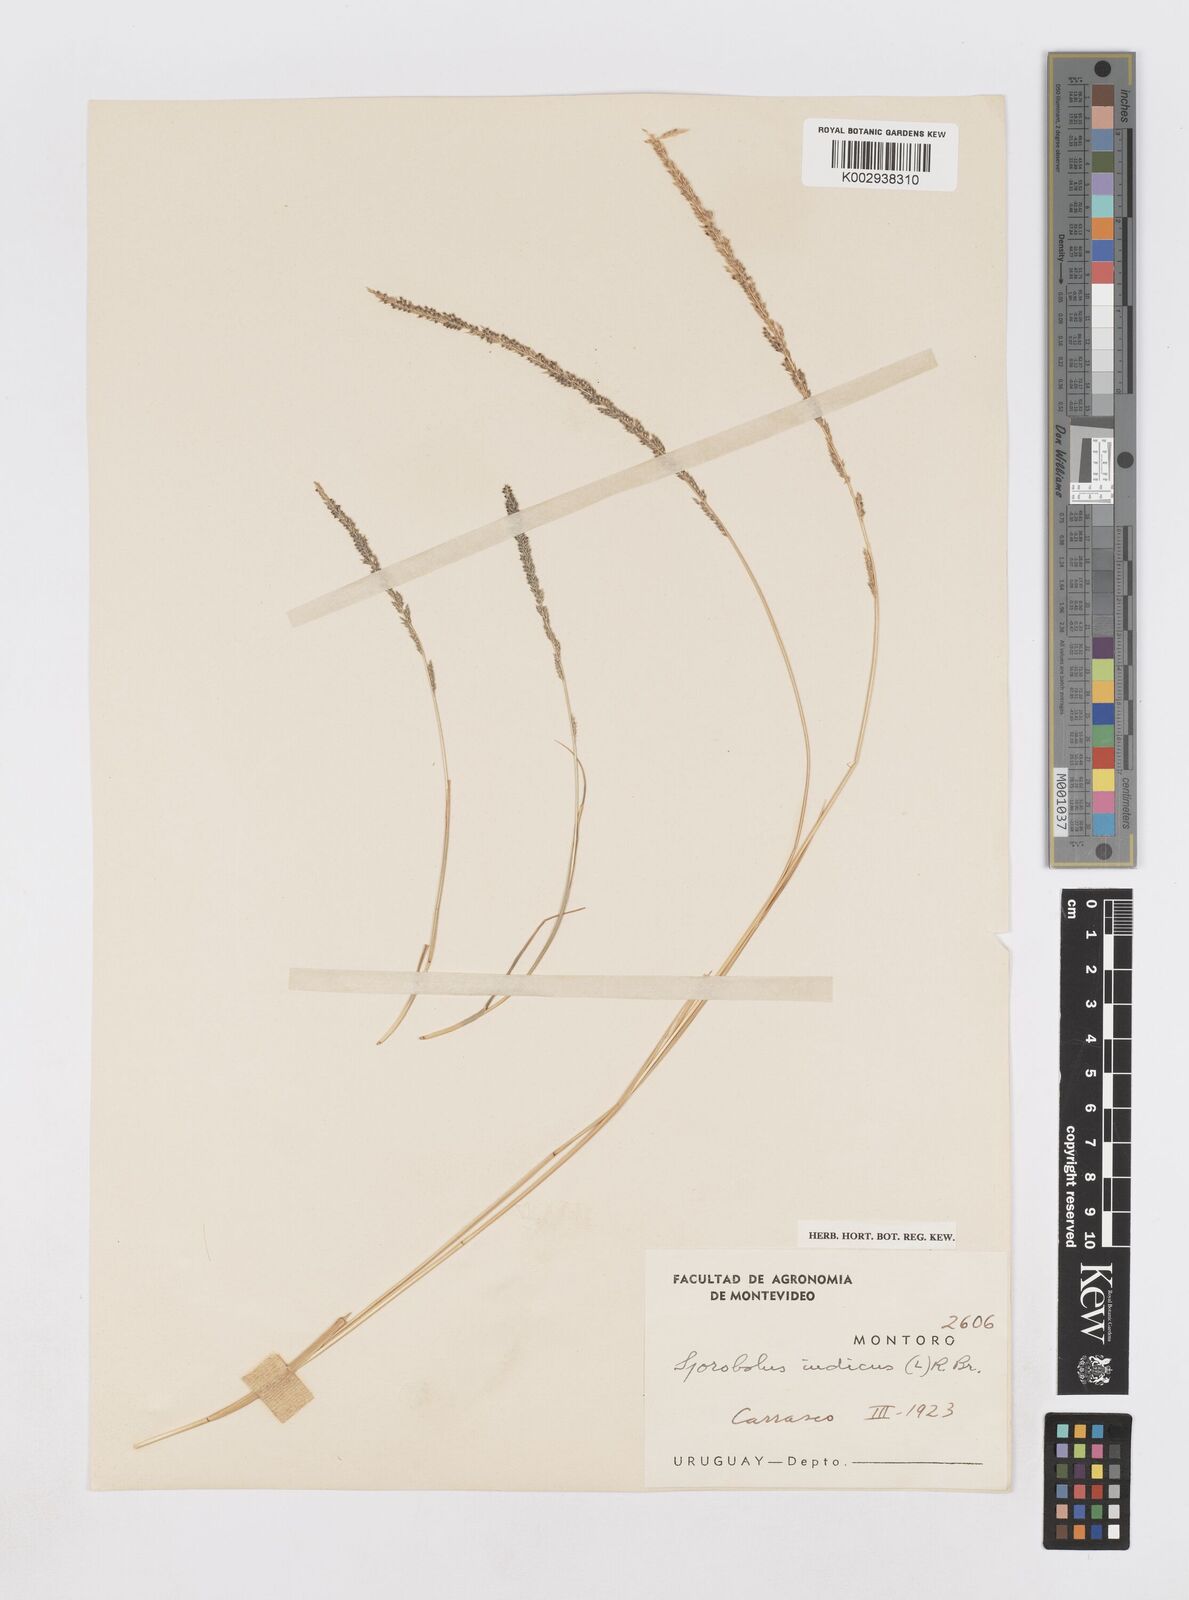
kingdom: Plantae
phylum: Tracheophyta
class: Liliopsida
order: Poales
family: Poaceae
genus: Sporobolus
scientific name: Sporobolus indicus
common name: Smut grass
